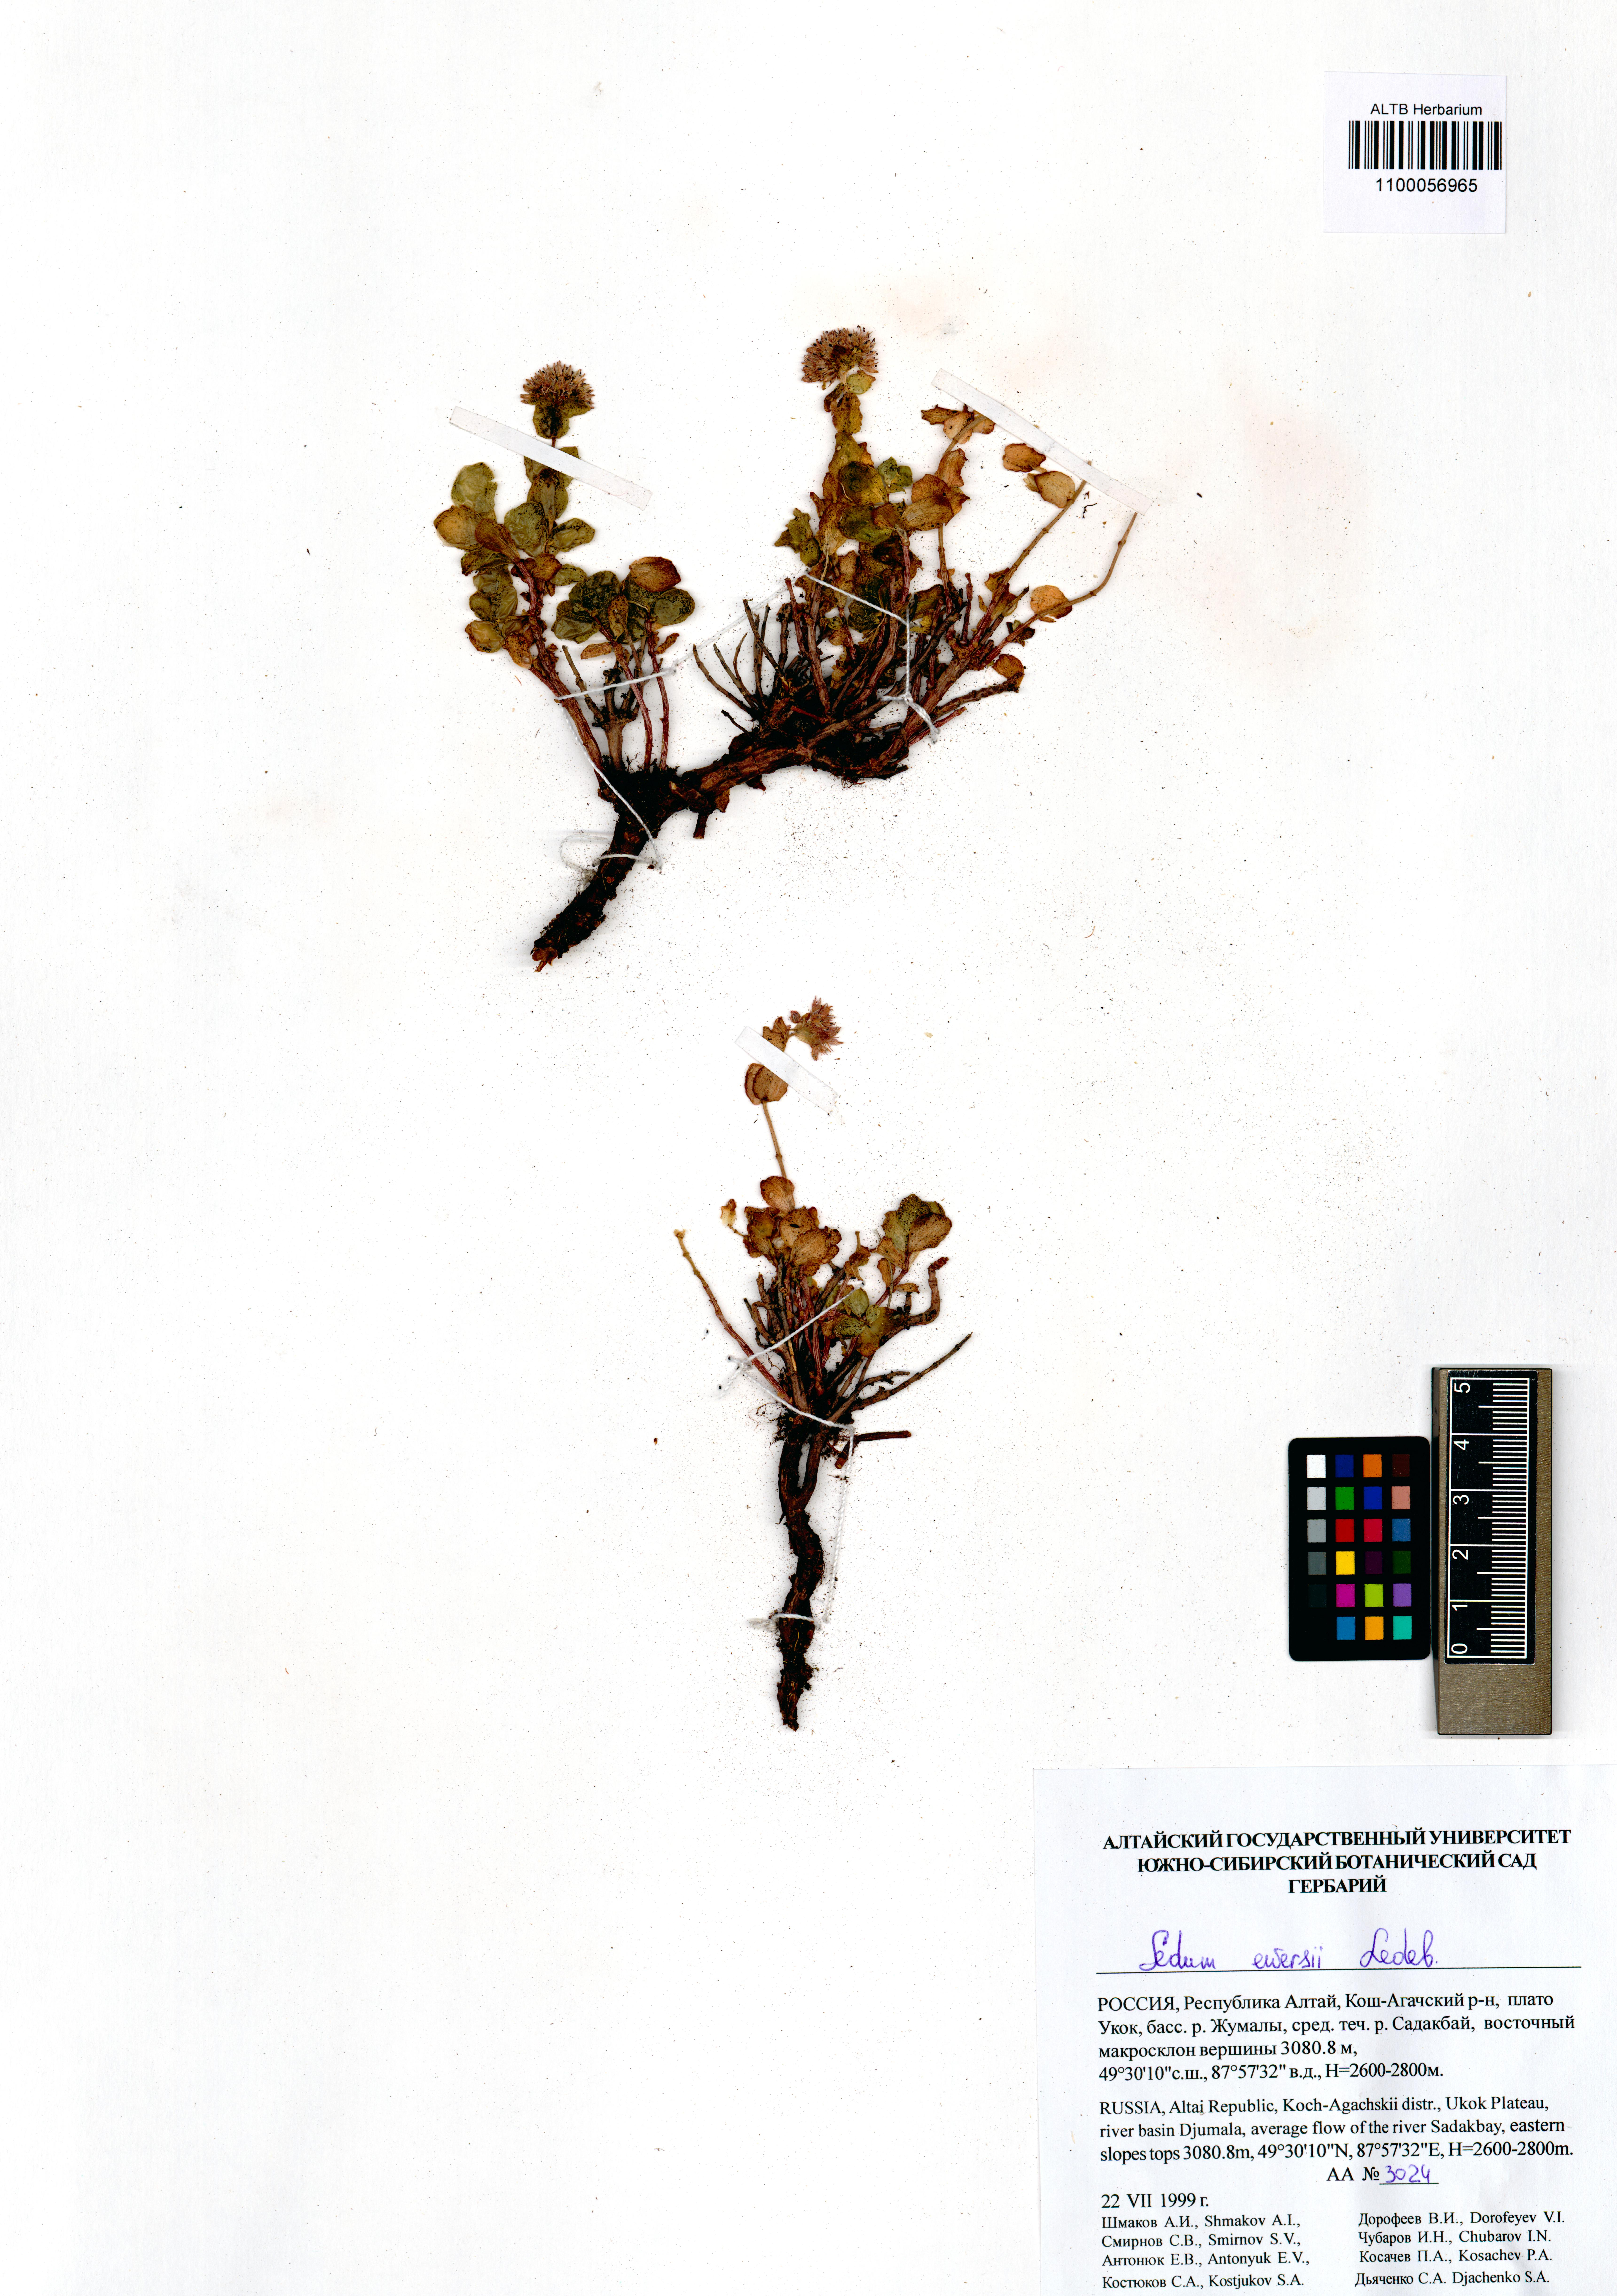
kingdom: Plantae
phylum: Tracheophyta
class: Magnoliopsida
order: Saxifragales
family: Crassulaceae
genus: Hylotelephium
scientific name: Hylotelephium ewersii
